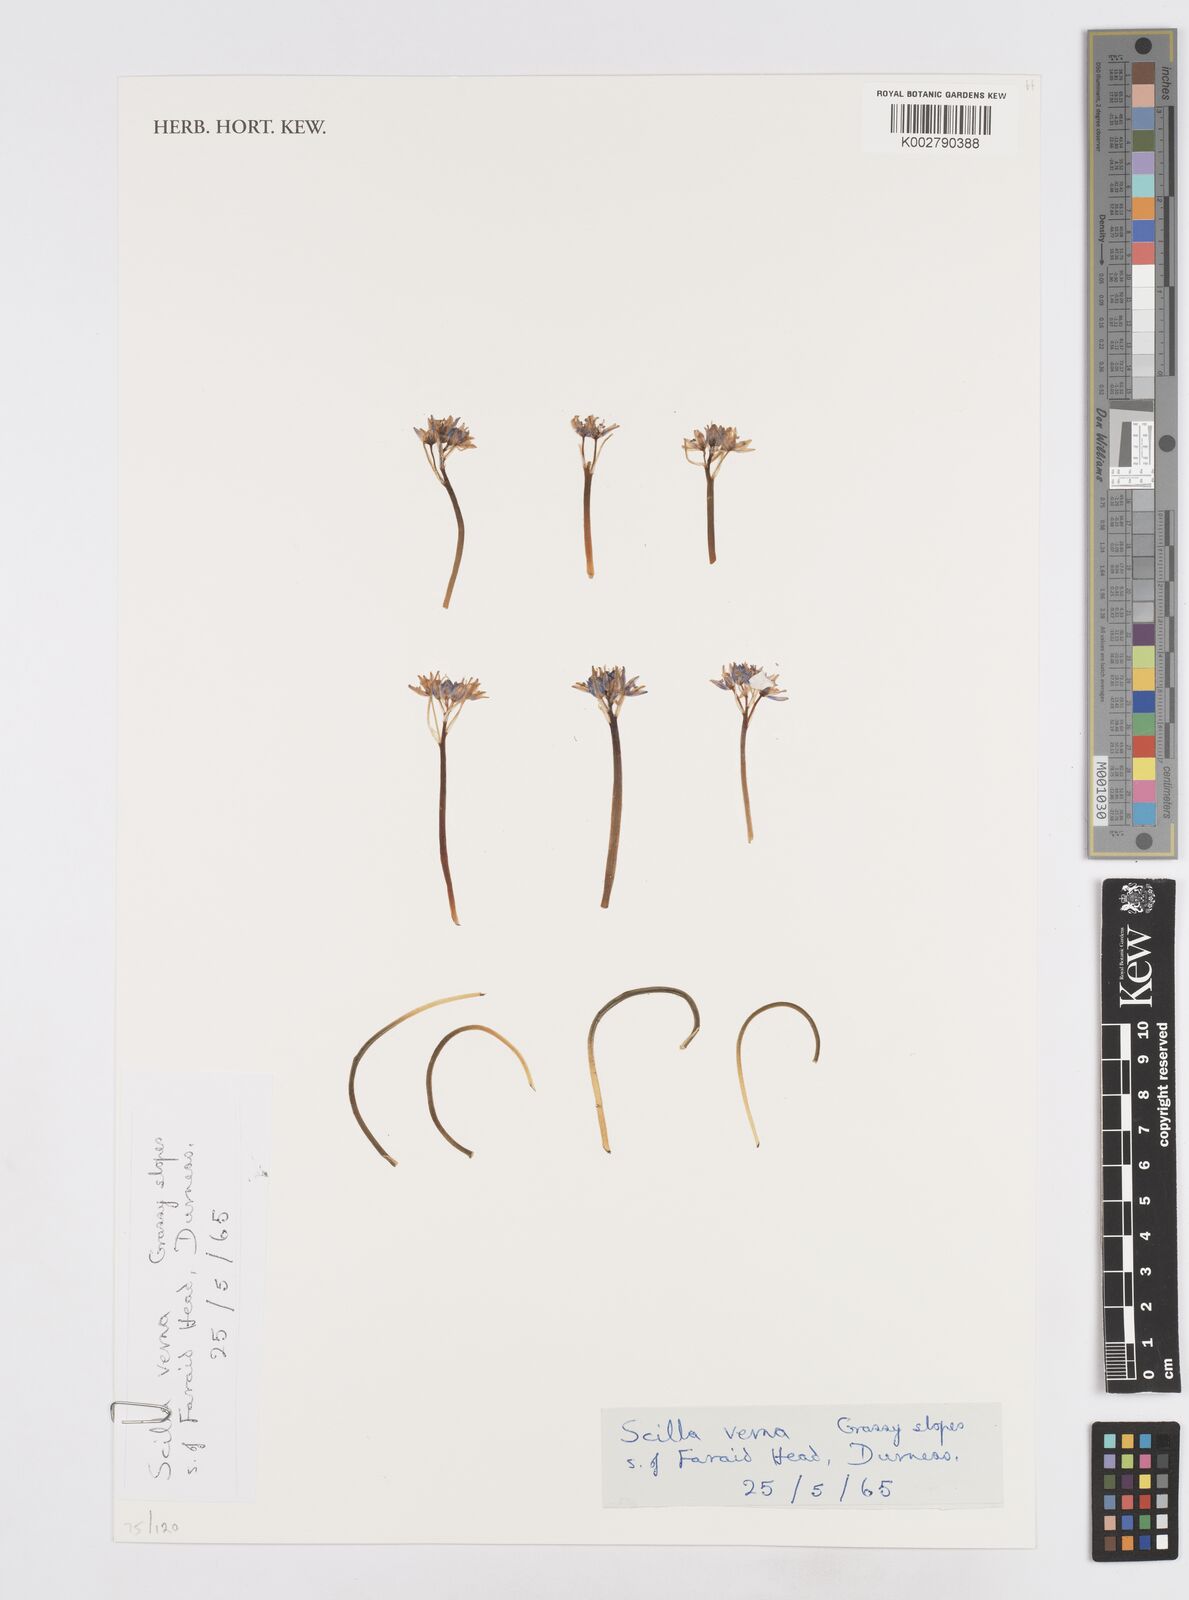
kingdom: Plantae
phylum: Tracheophyta
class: Liliopsida
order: Asparagales
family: Asparagaceae
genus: Scilla
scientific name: Scilla verna
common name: Spring squill
